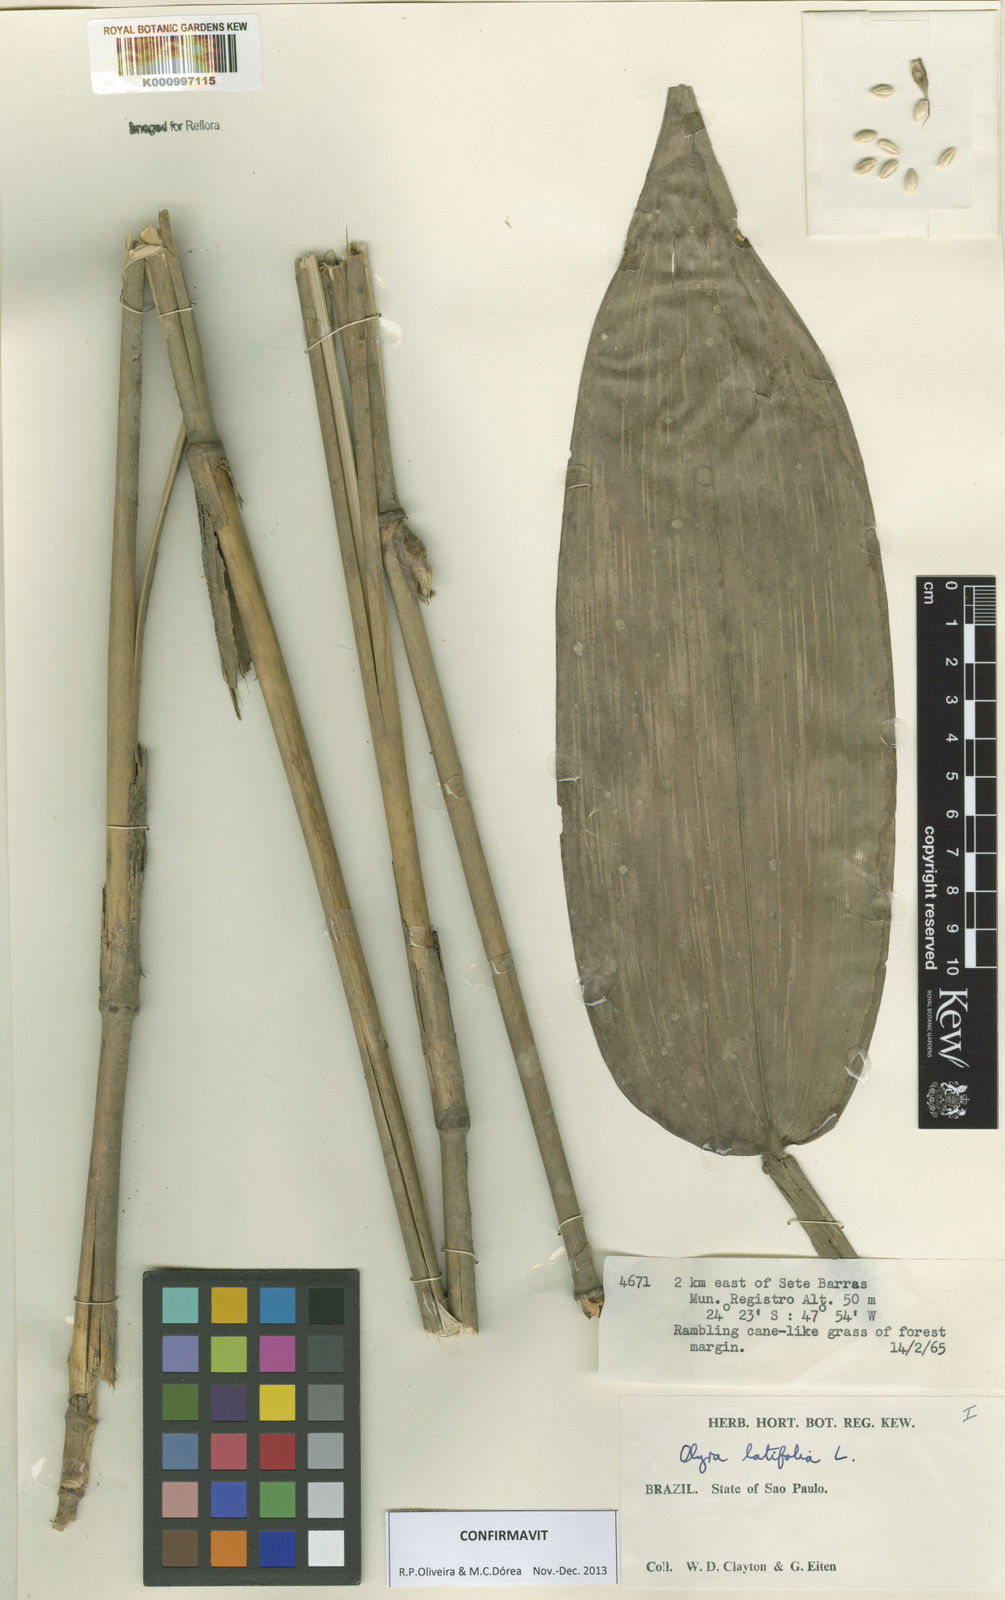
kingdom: Plantae
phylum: Tracheophyta
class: Liliopsida
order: Poales
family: Poaceae
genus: Olyra
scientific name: Olyra latifolia
